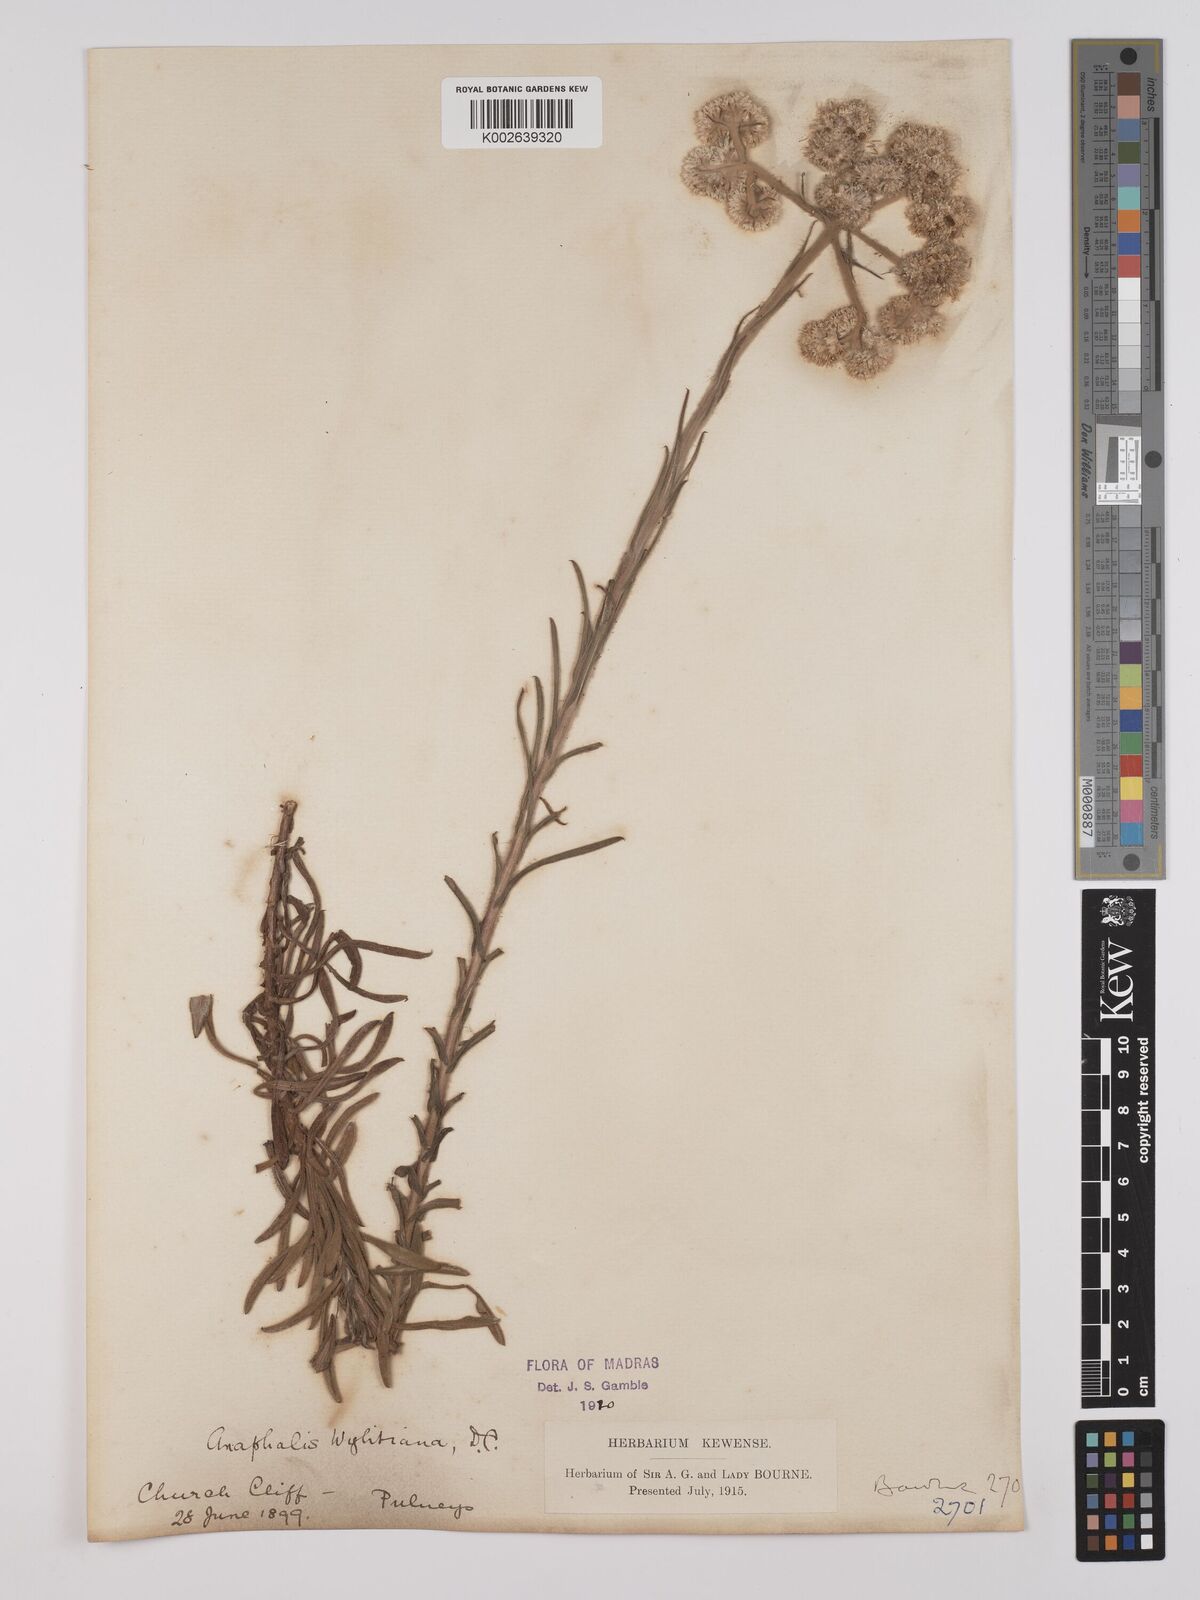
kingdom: Plantae
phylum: Tracheophyta
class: Magnoliopsida
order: Asterales
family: Asteraceae
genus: Anaphalis
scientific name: Anaphalis wightiana
